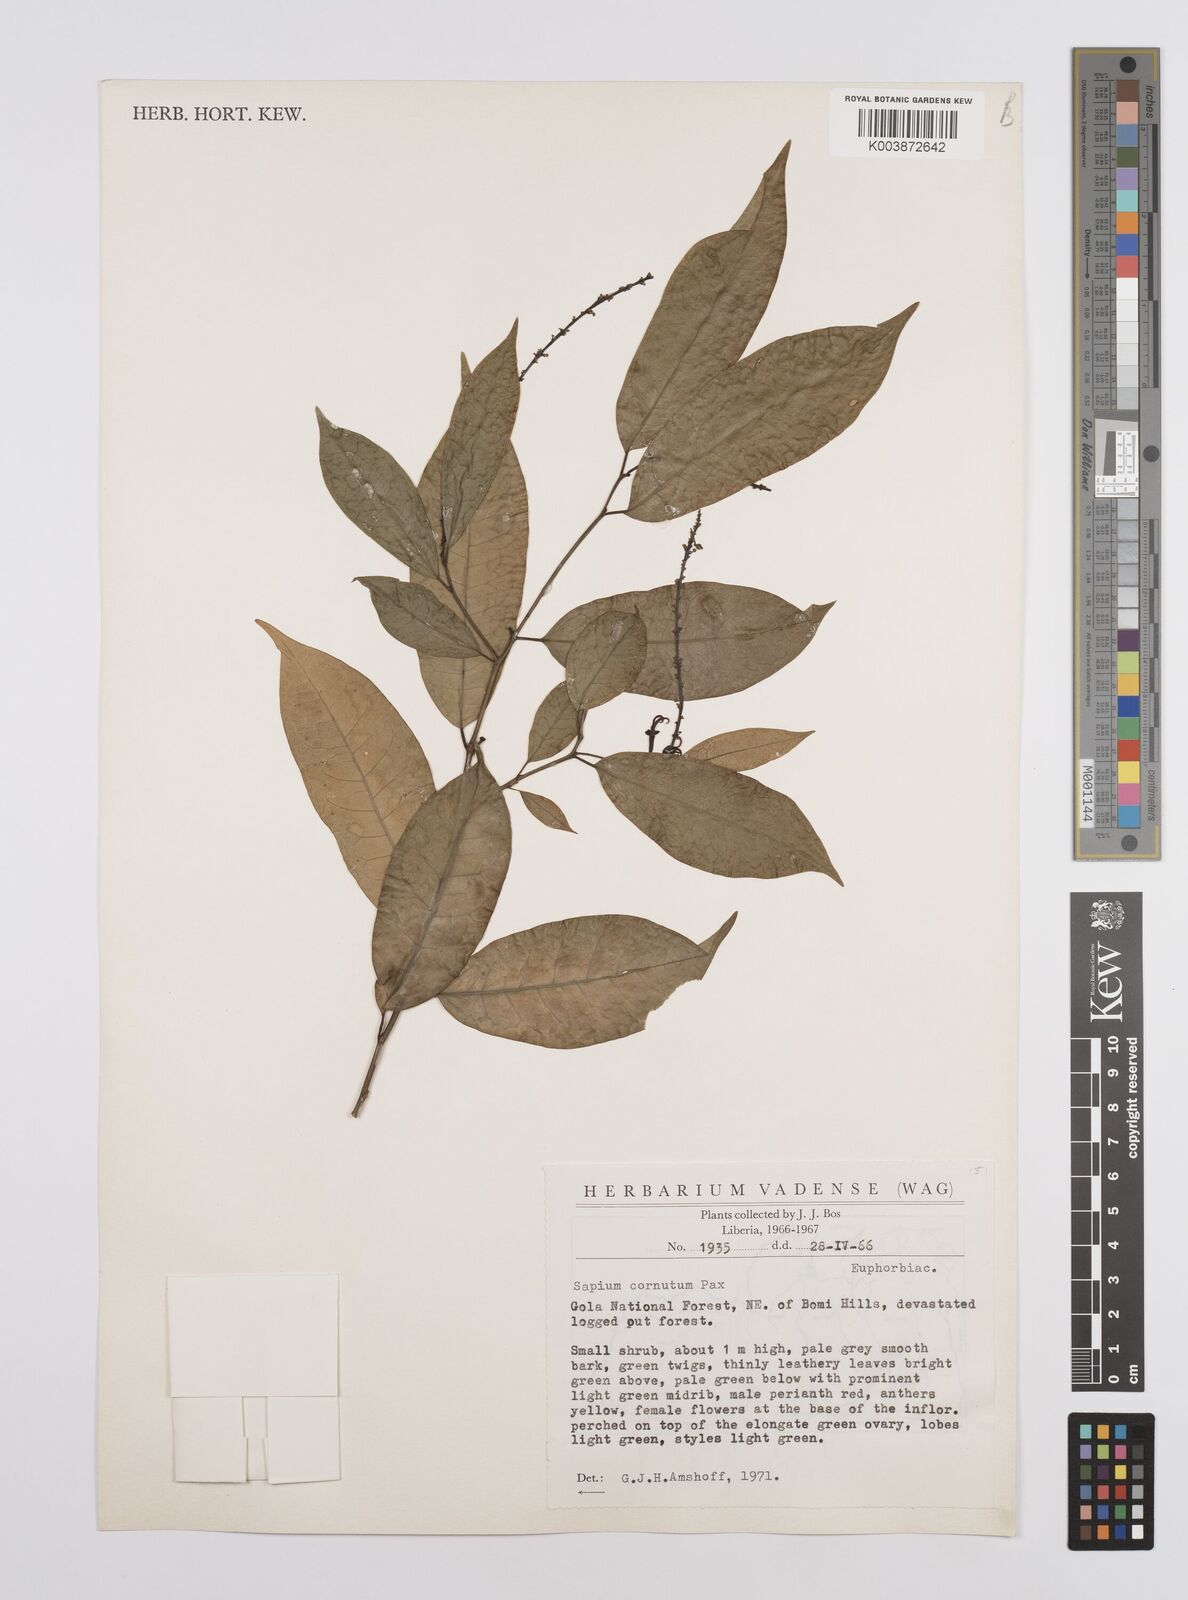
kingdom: Plantae
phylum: Tracheophyta
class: Magnoliopsida
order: Malpighiales
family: Euphorbiaceae
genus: Sclerocroton
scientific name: Sclerocroton carterianus
